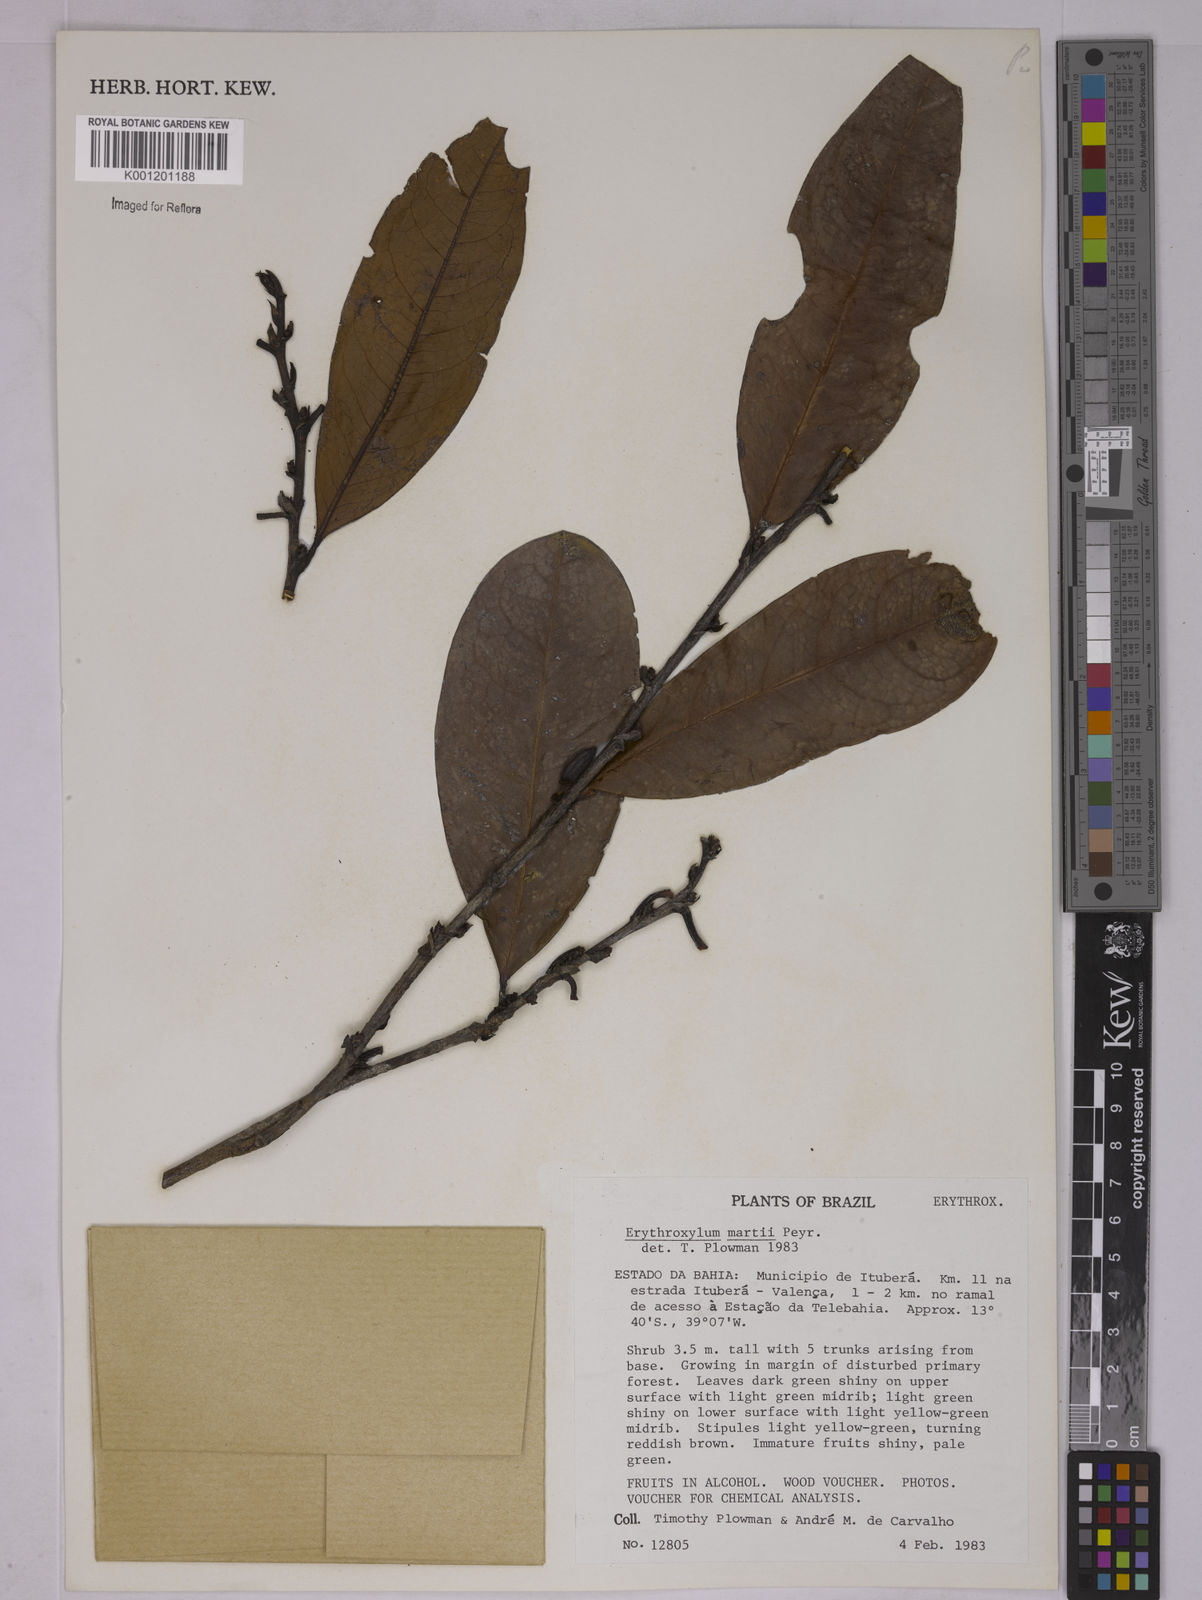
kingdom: Plantae
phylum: Tracheophyta
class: Magnoliopsida
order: Malpighiales
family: Erythroxylaceae
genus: Erythroxylum
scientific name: Erythroxylum martii
